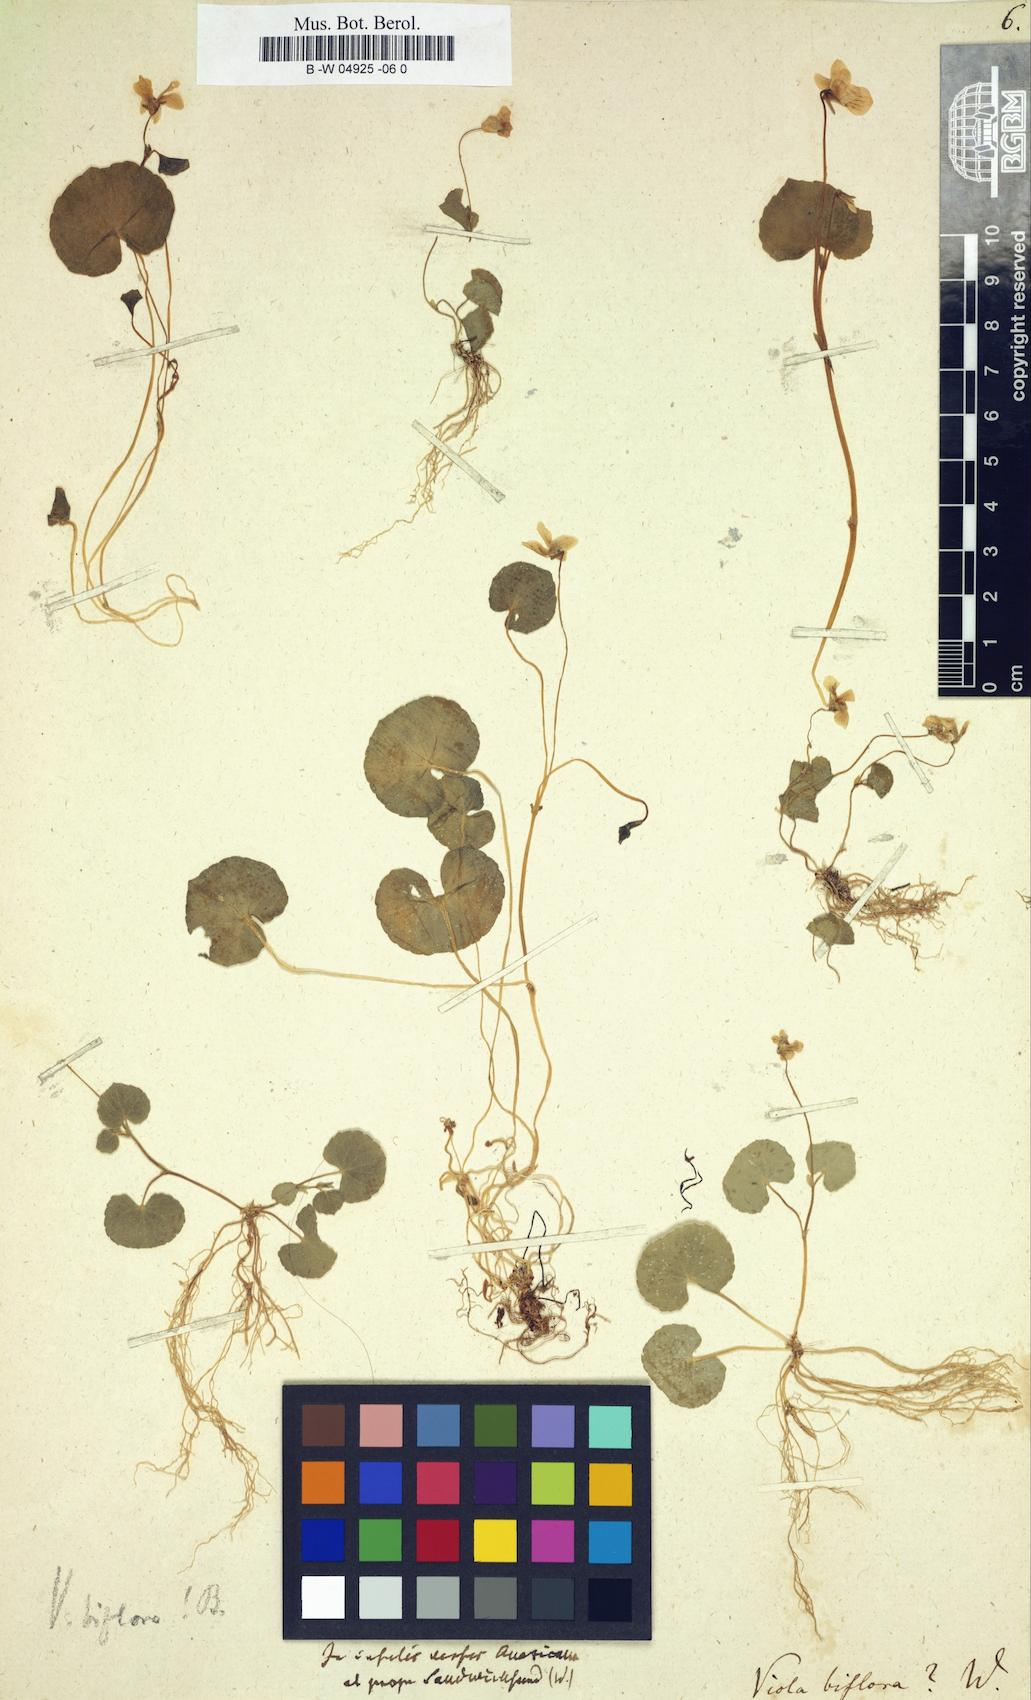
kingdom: Plantae
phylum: Tracheophyta
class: Magnoliopsida
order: Malpighiales
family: Violaceae
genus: Viola
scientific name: Viola biflora
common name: Alpine yellow violet
